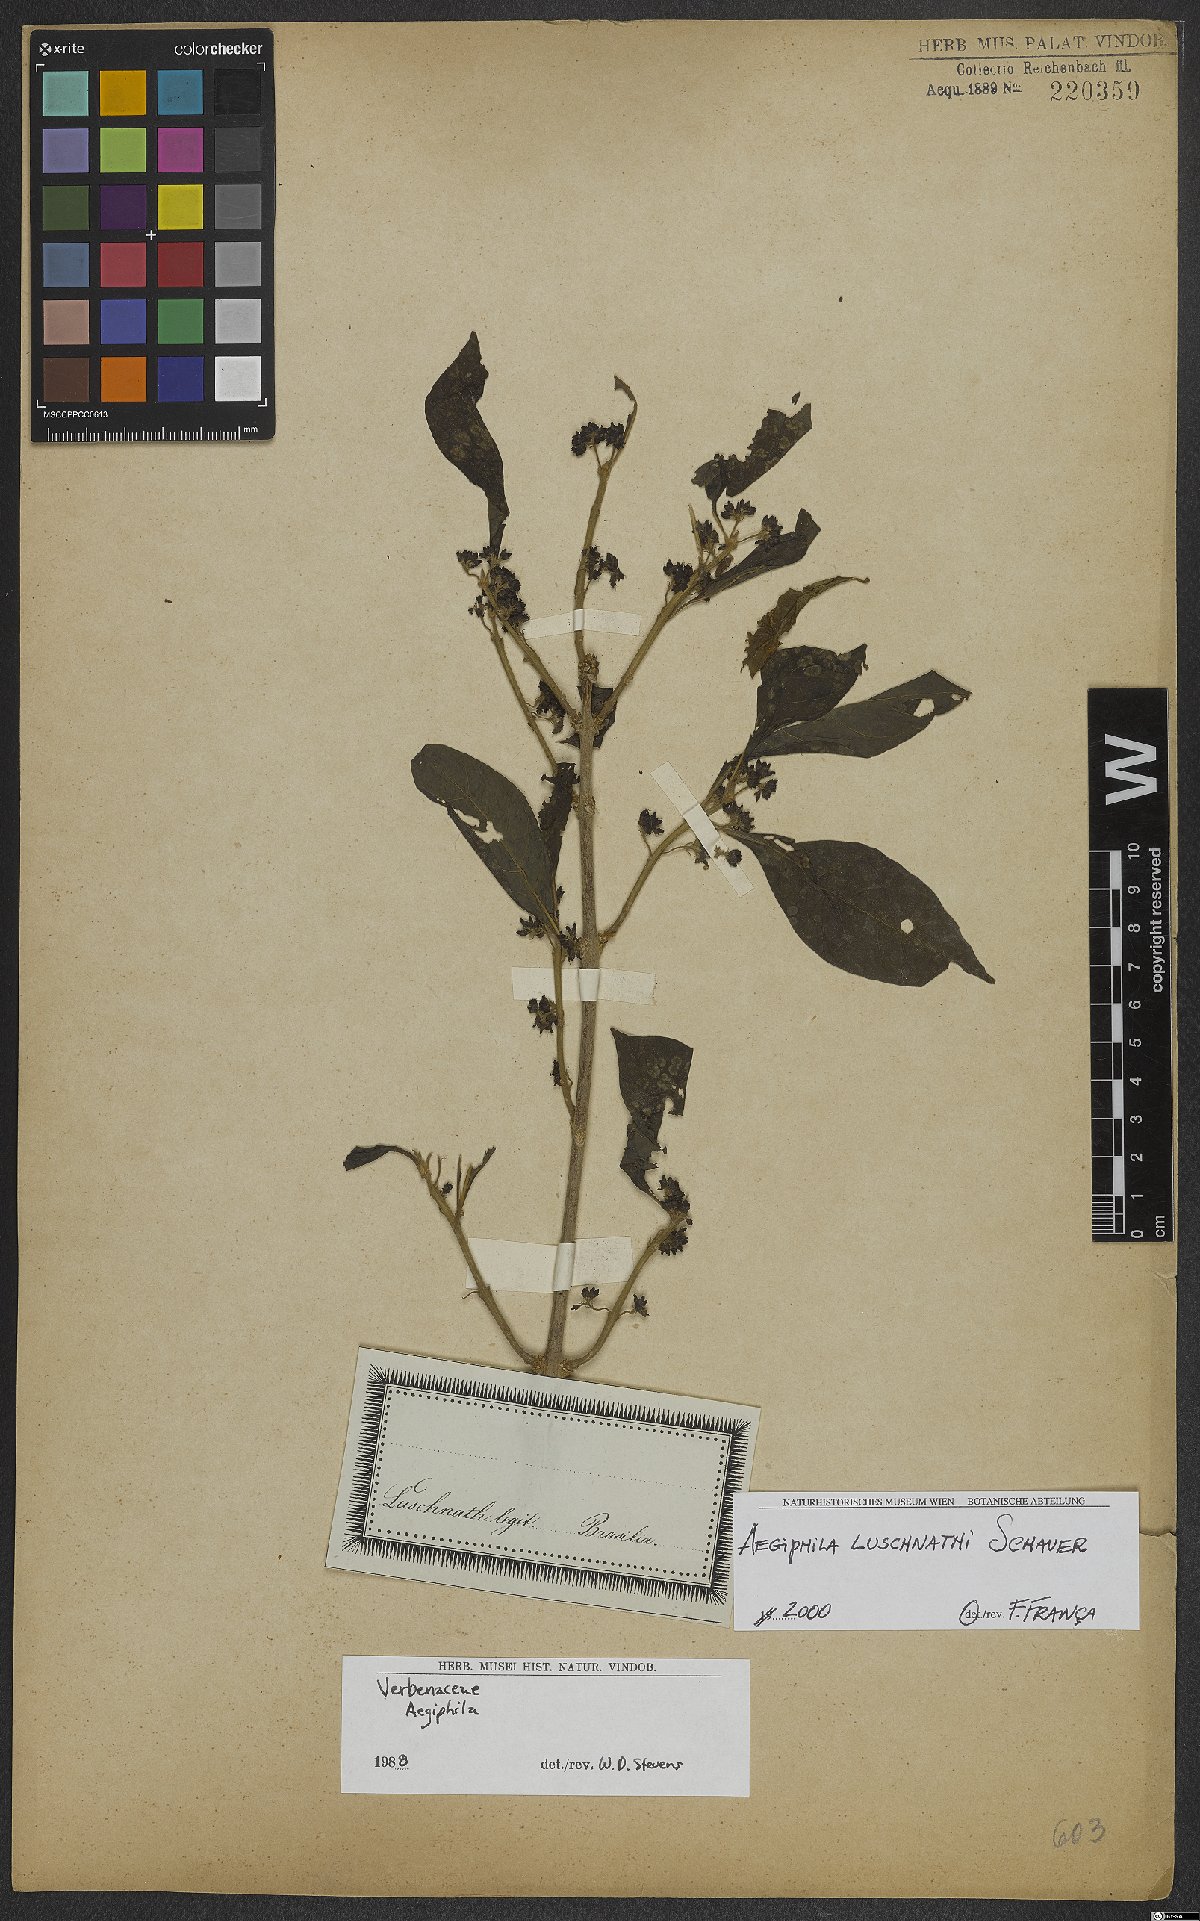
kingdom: Plantae
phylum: Tracheophyta
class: Magnoliopsida
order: Lamiales
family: Lamiaceae
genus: Aegiphila
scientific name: Aegiphila luschnathii
